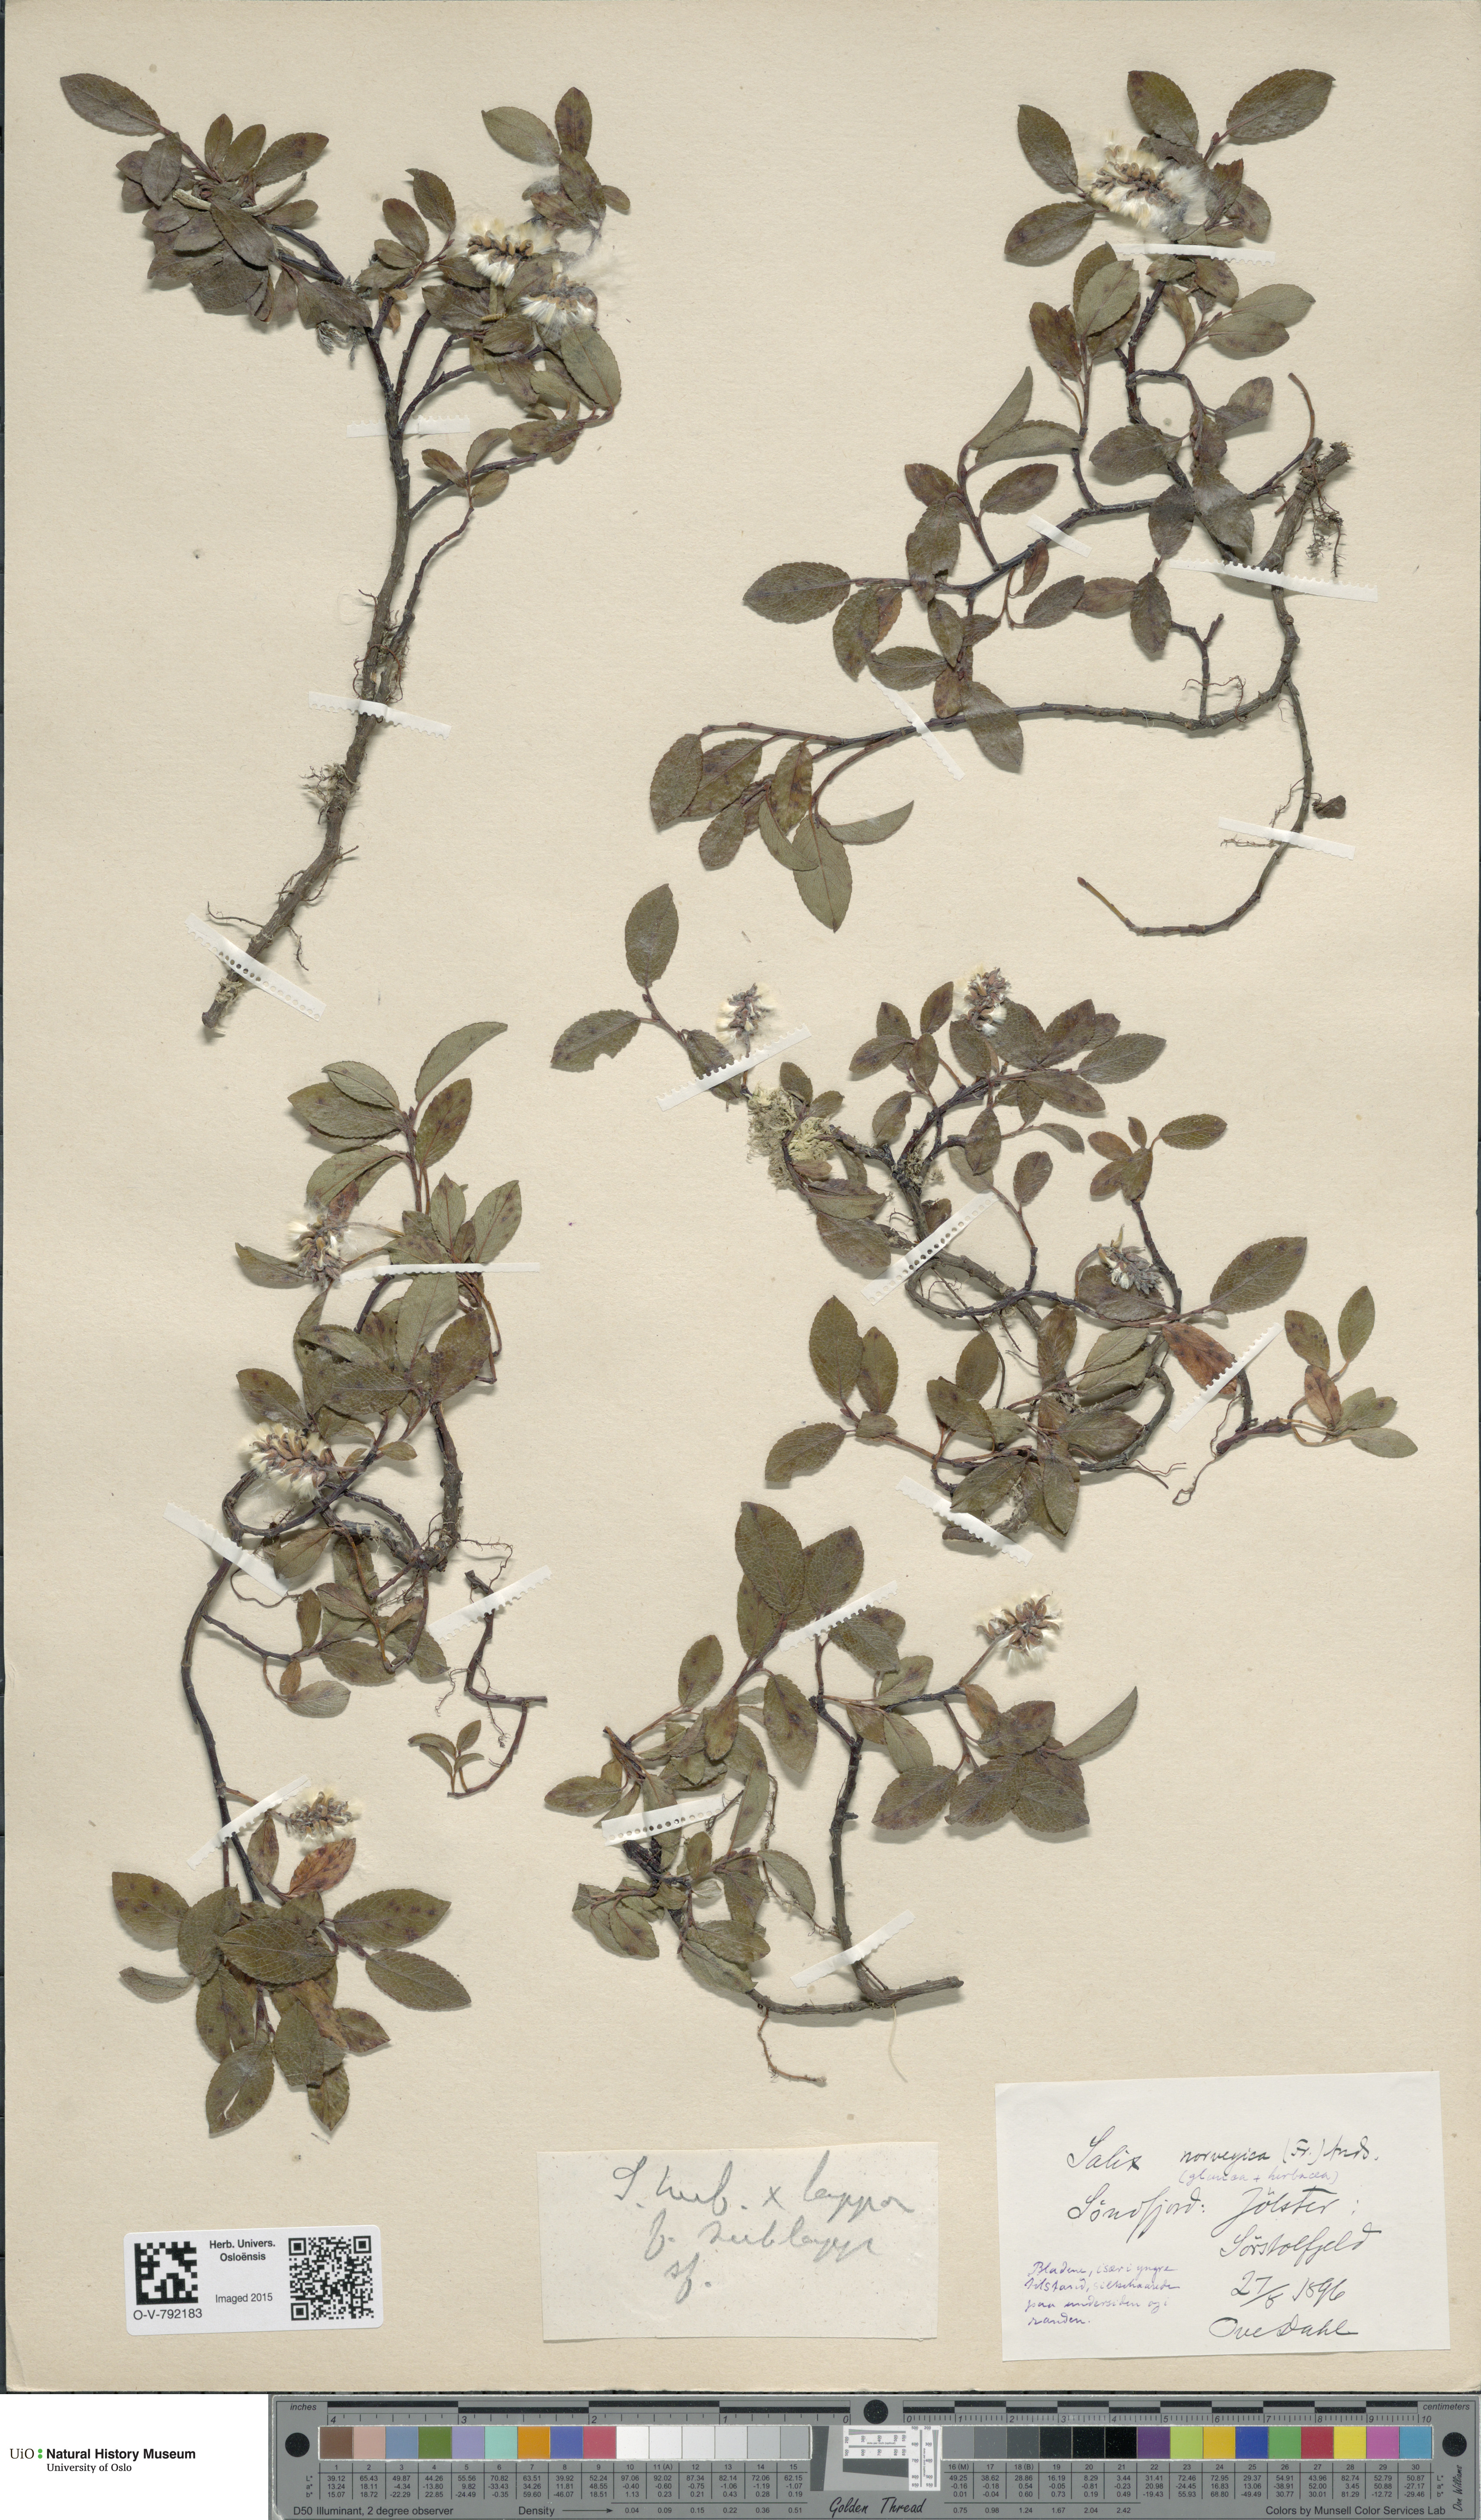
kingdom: Plantae
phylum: Tracheophyta
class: Magnoliopsida
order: Malpighiales
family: Salicaceae
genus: Salix
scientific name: Salix
